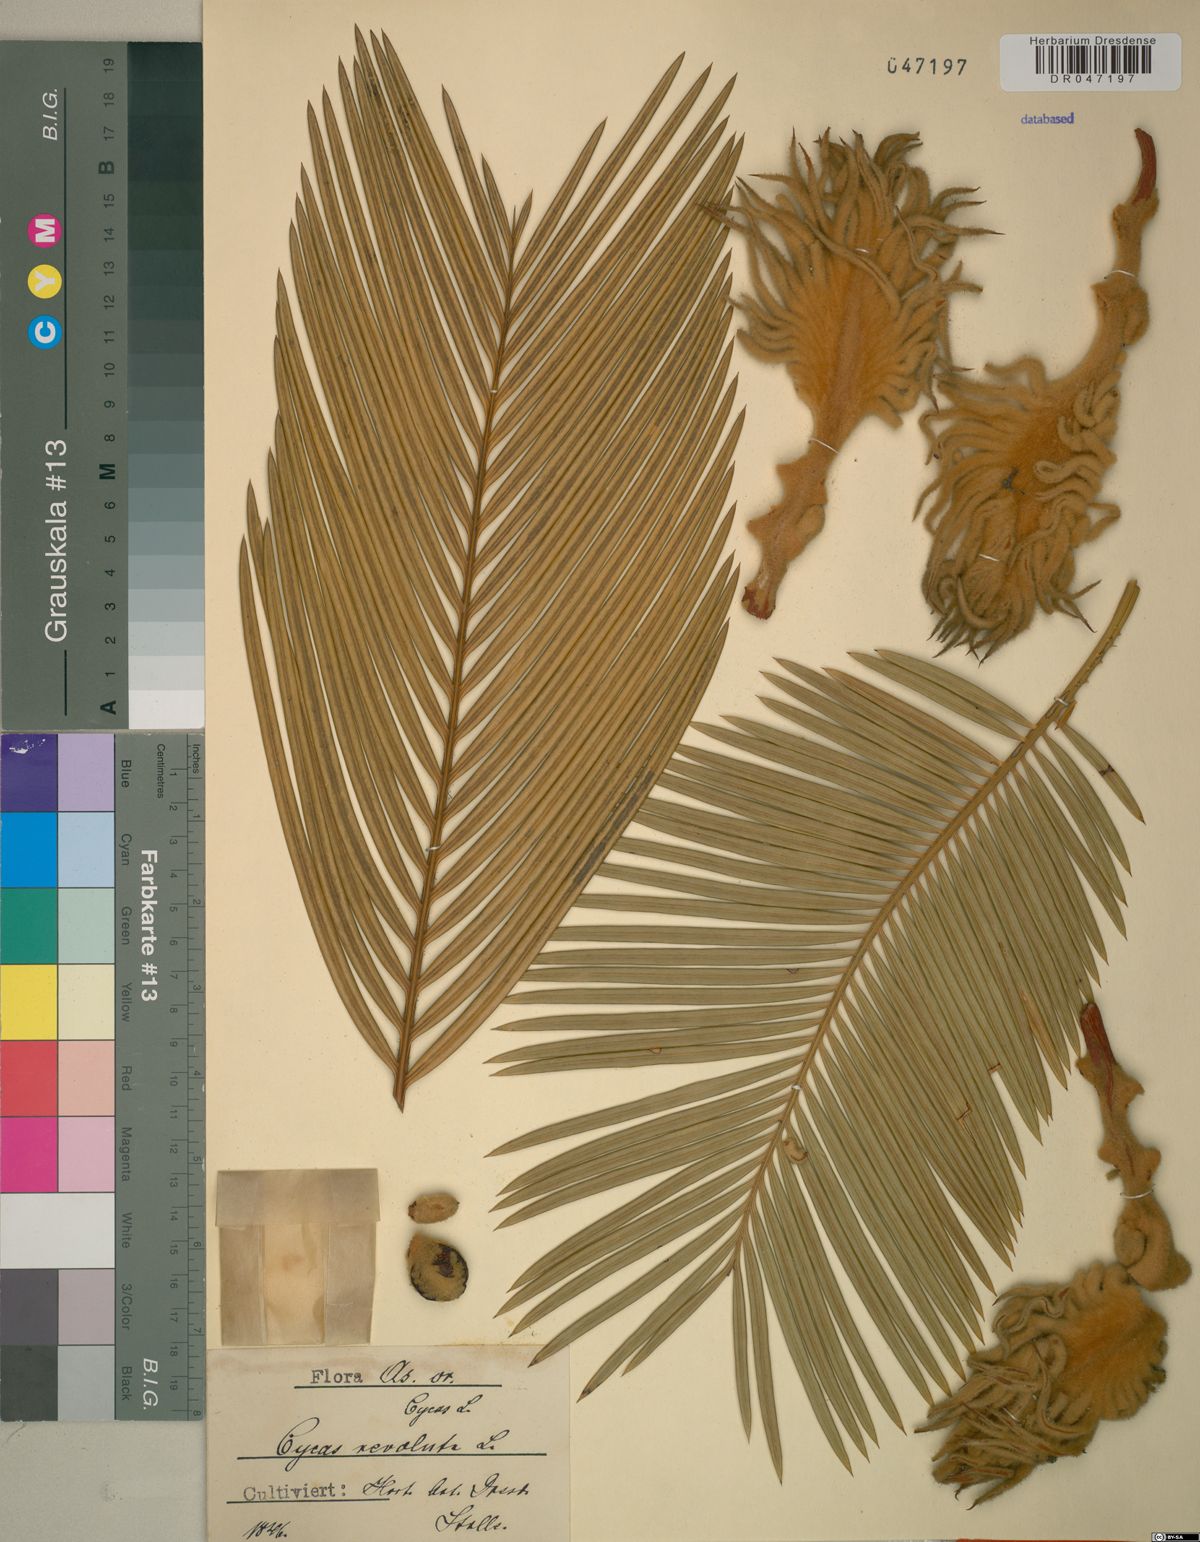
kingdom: Plantae
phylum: Tracheophyta
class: Cycadopsida
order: Cycadales
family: Cycadaceae
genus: Cycas
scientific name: Cycas revoluta
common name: Sago palm
